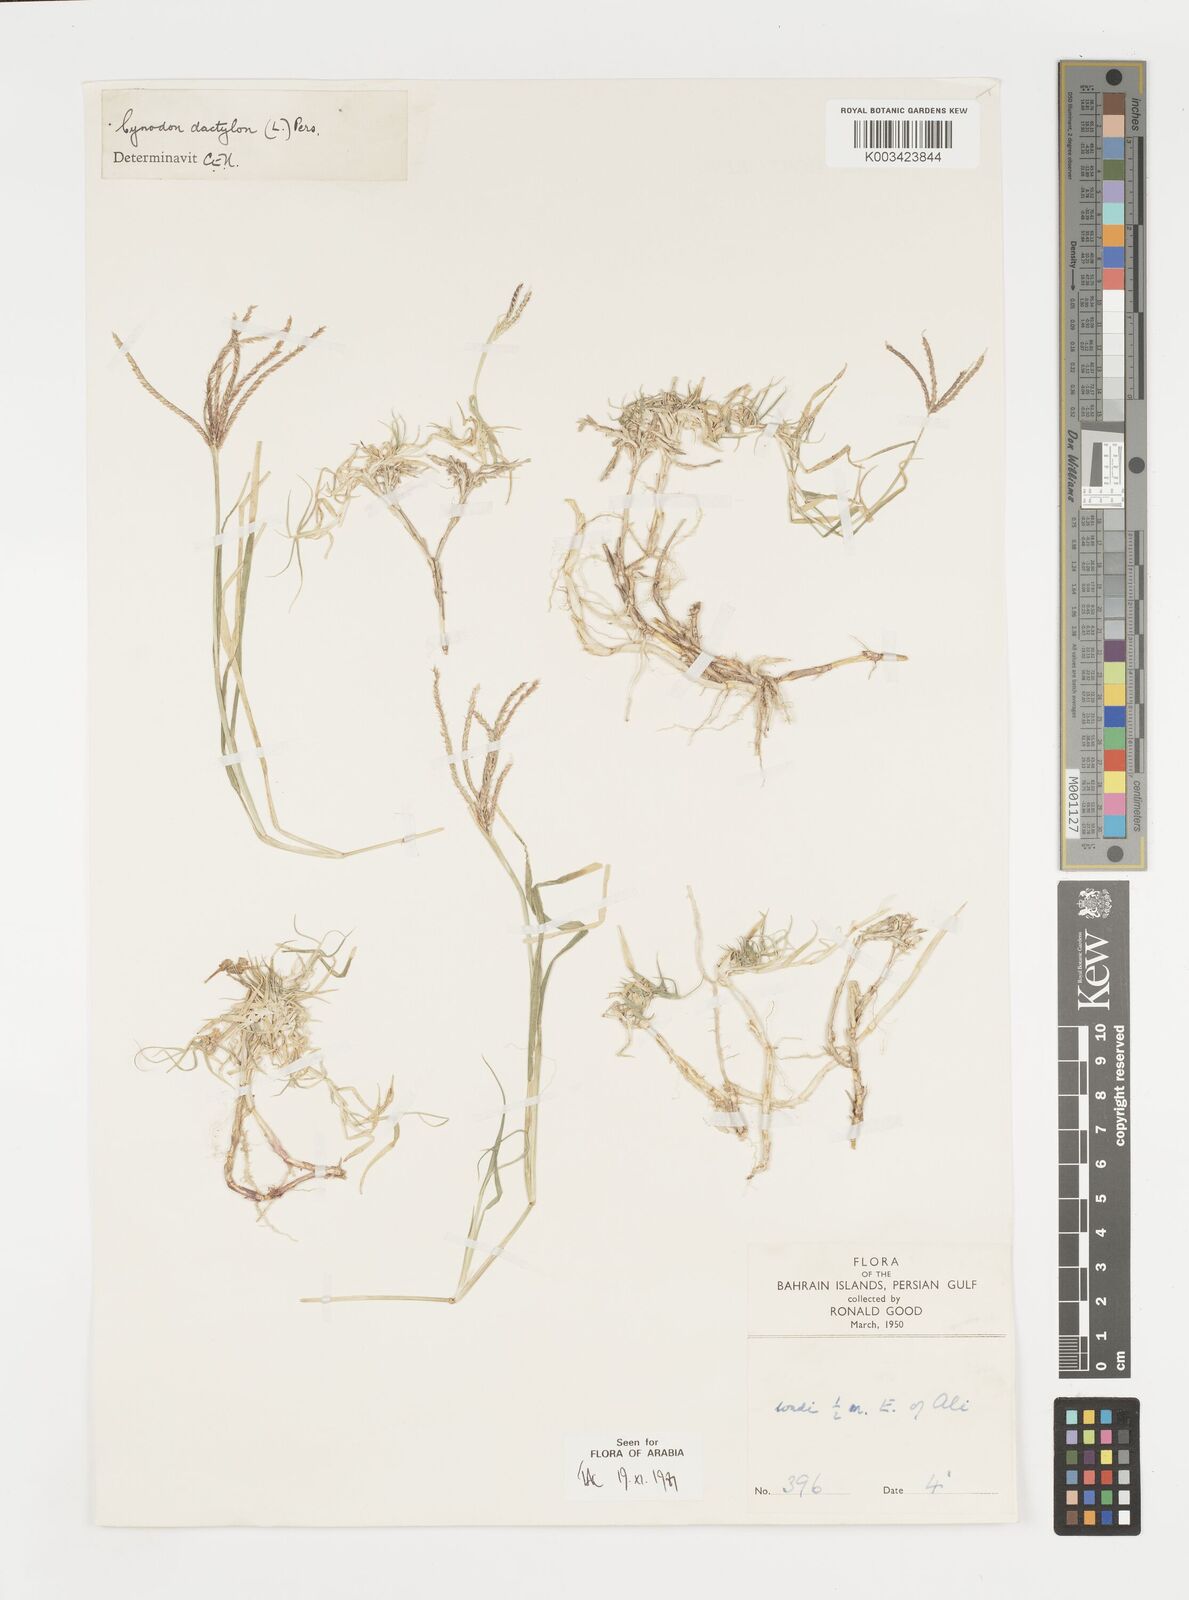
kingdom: Plantae
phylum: Tracheophyta
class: Liliopsida
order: Poales
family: Poaceae
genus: Cynodon
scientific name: Cynodon dactylon
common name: Bermuda grass
